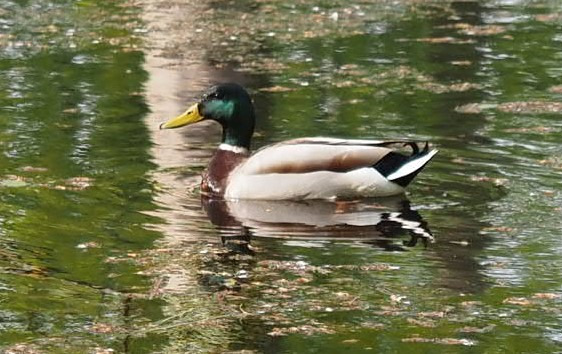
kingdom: Animalia
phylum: Chordata
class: Aves
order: Anseriformes
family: Anatidae
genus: Anas
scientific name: Anas platyrhynchos
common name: Gråand
